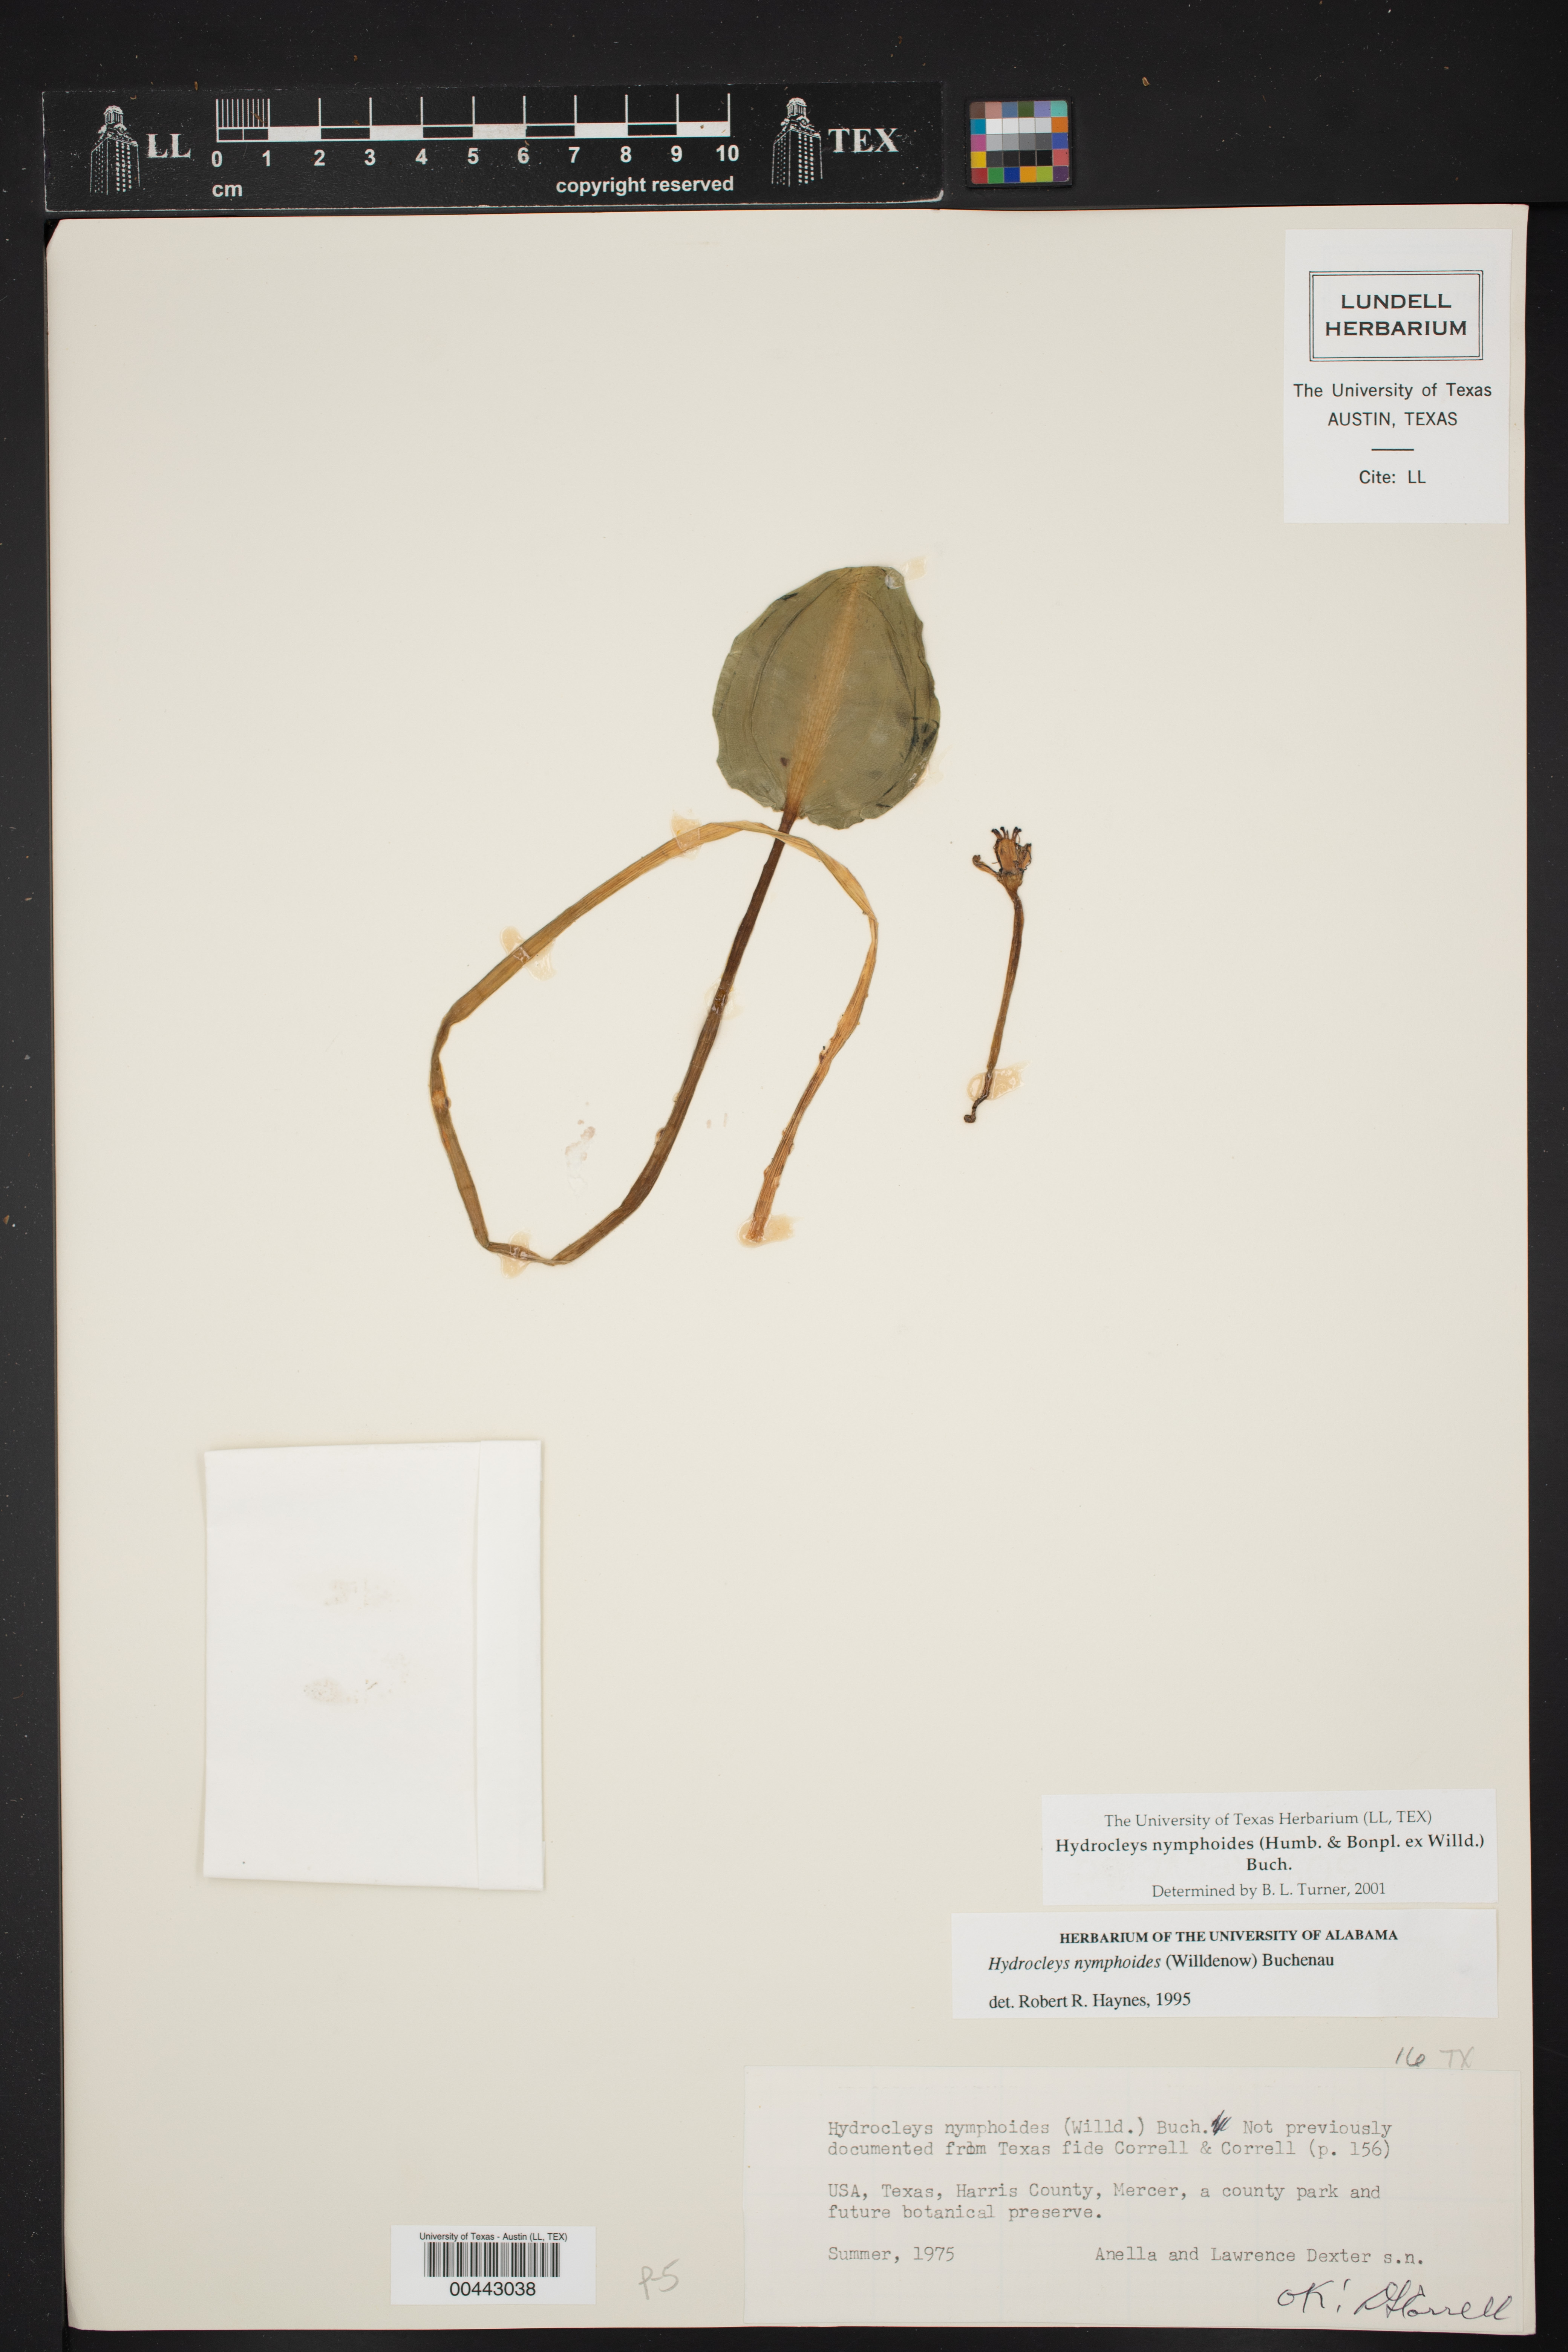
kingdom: Plantae
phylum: Tracheophyta
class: Liliopsida
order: Alismatales
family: Alismataceae
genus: Hydrocleys
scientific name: Hydrocleys nymphoides
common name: Water-poppy
